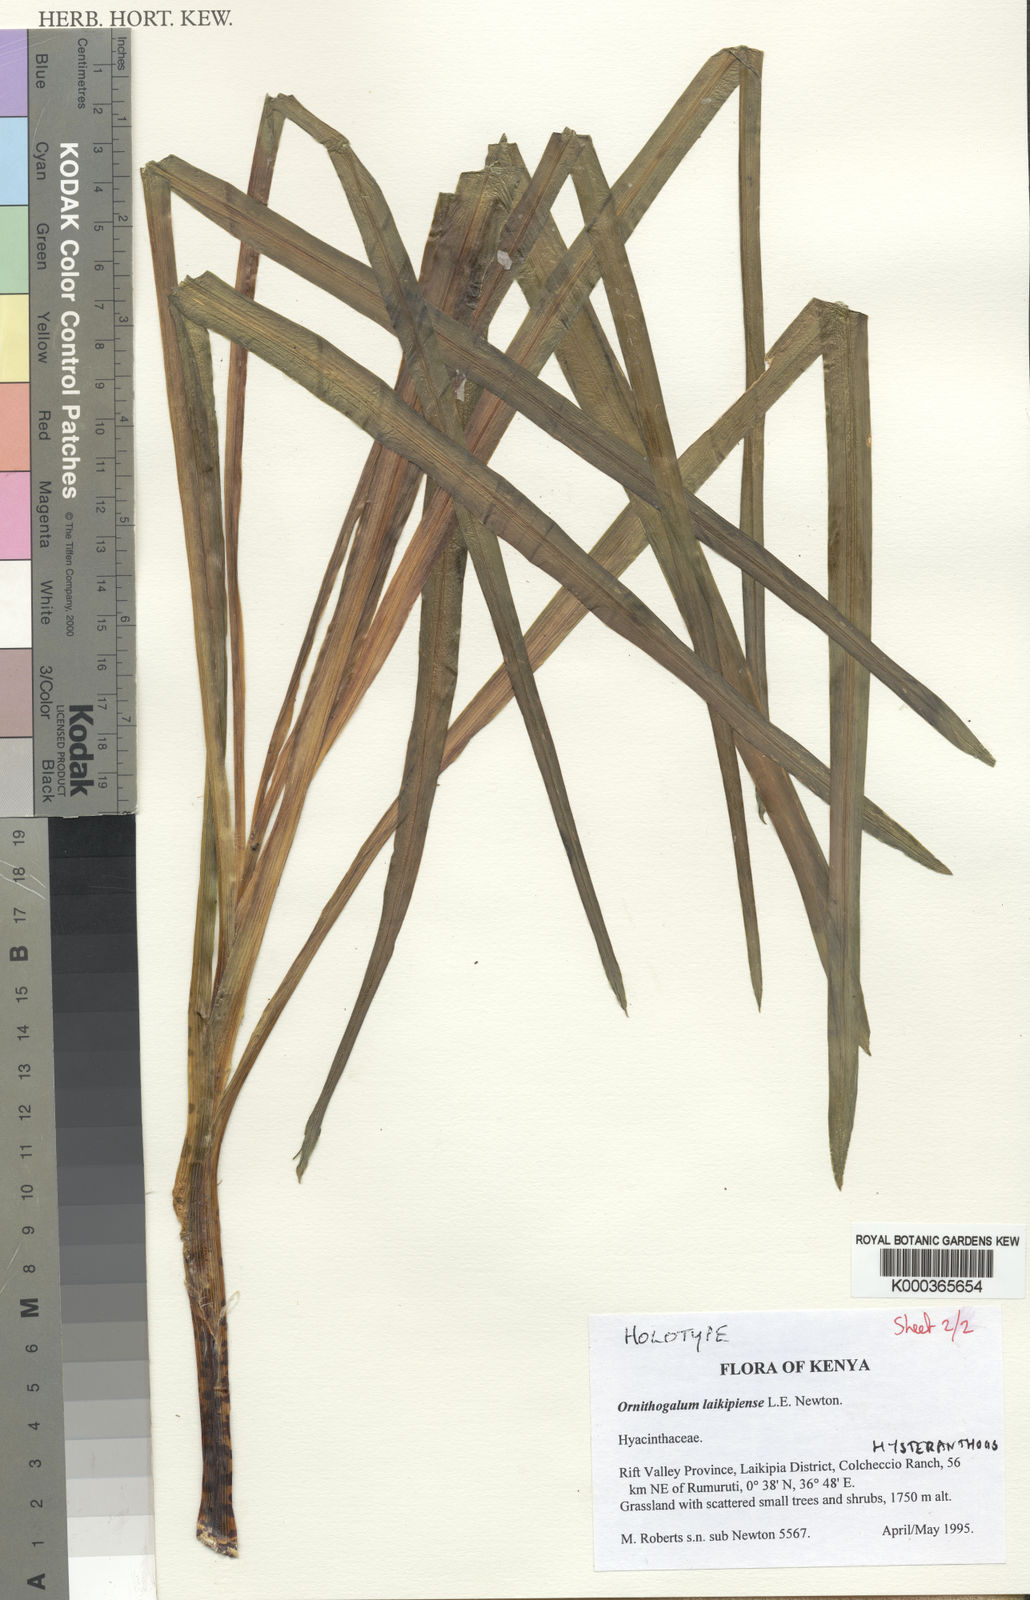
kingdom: Plantae
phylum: Tracheophyta
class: Liliopsida
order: Asparagales
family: Asparagaceae
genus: Drimia
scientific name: Drimia basutica
